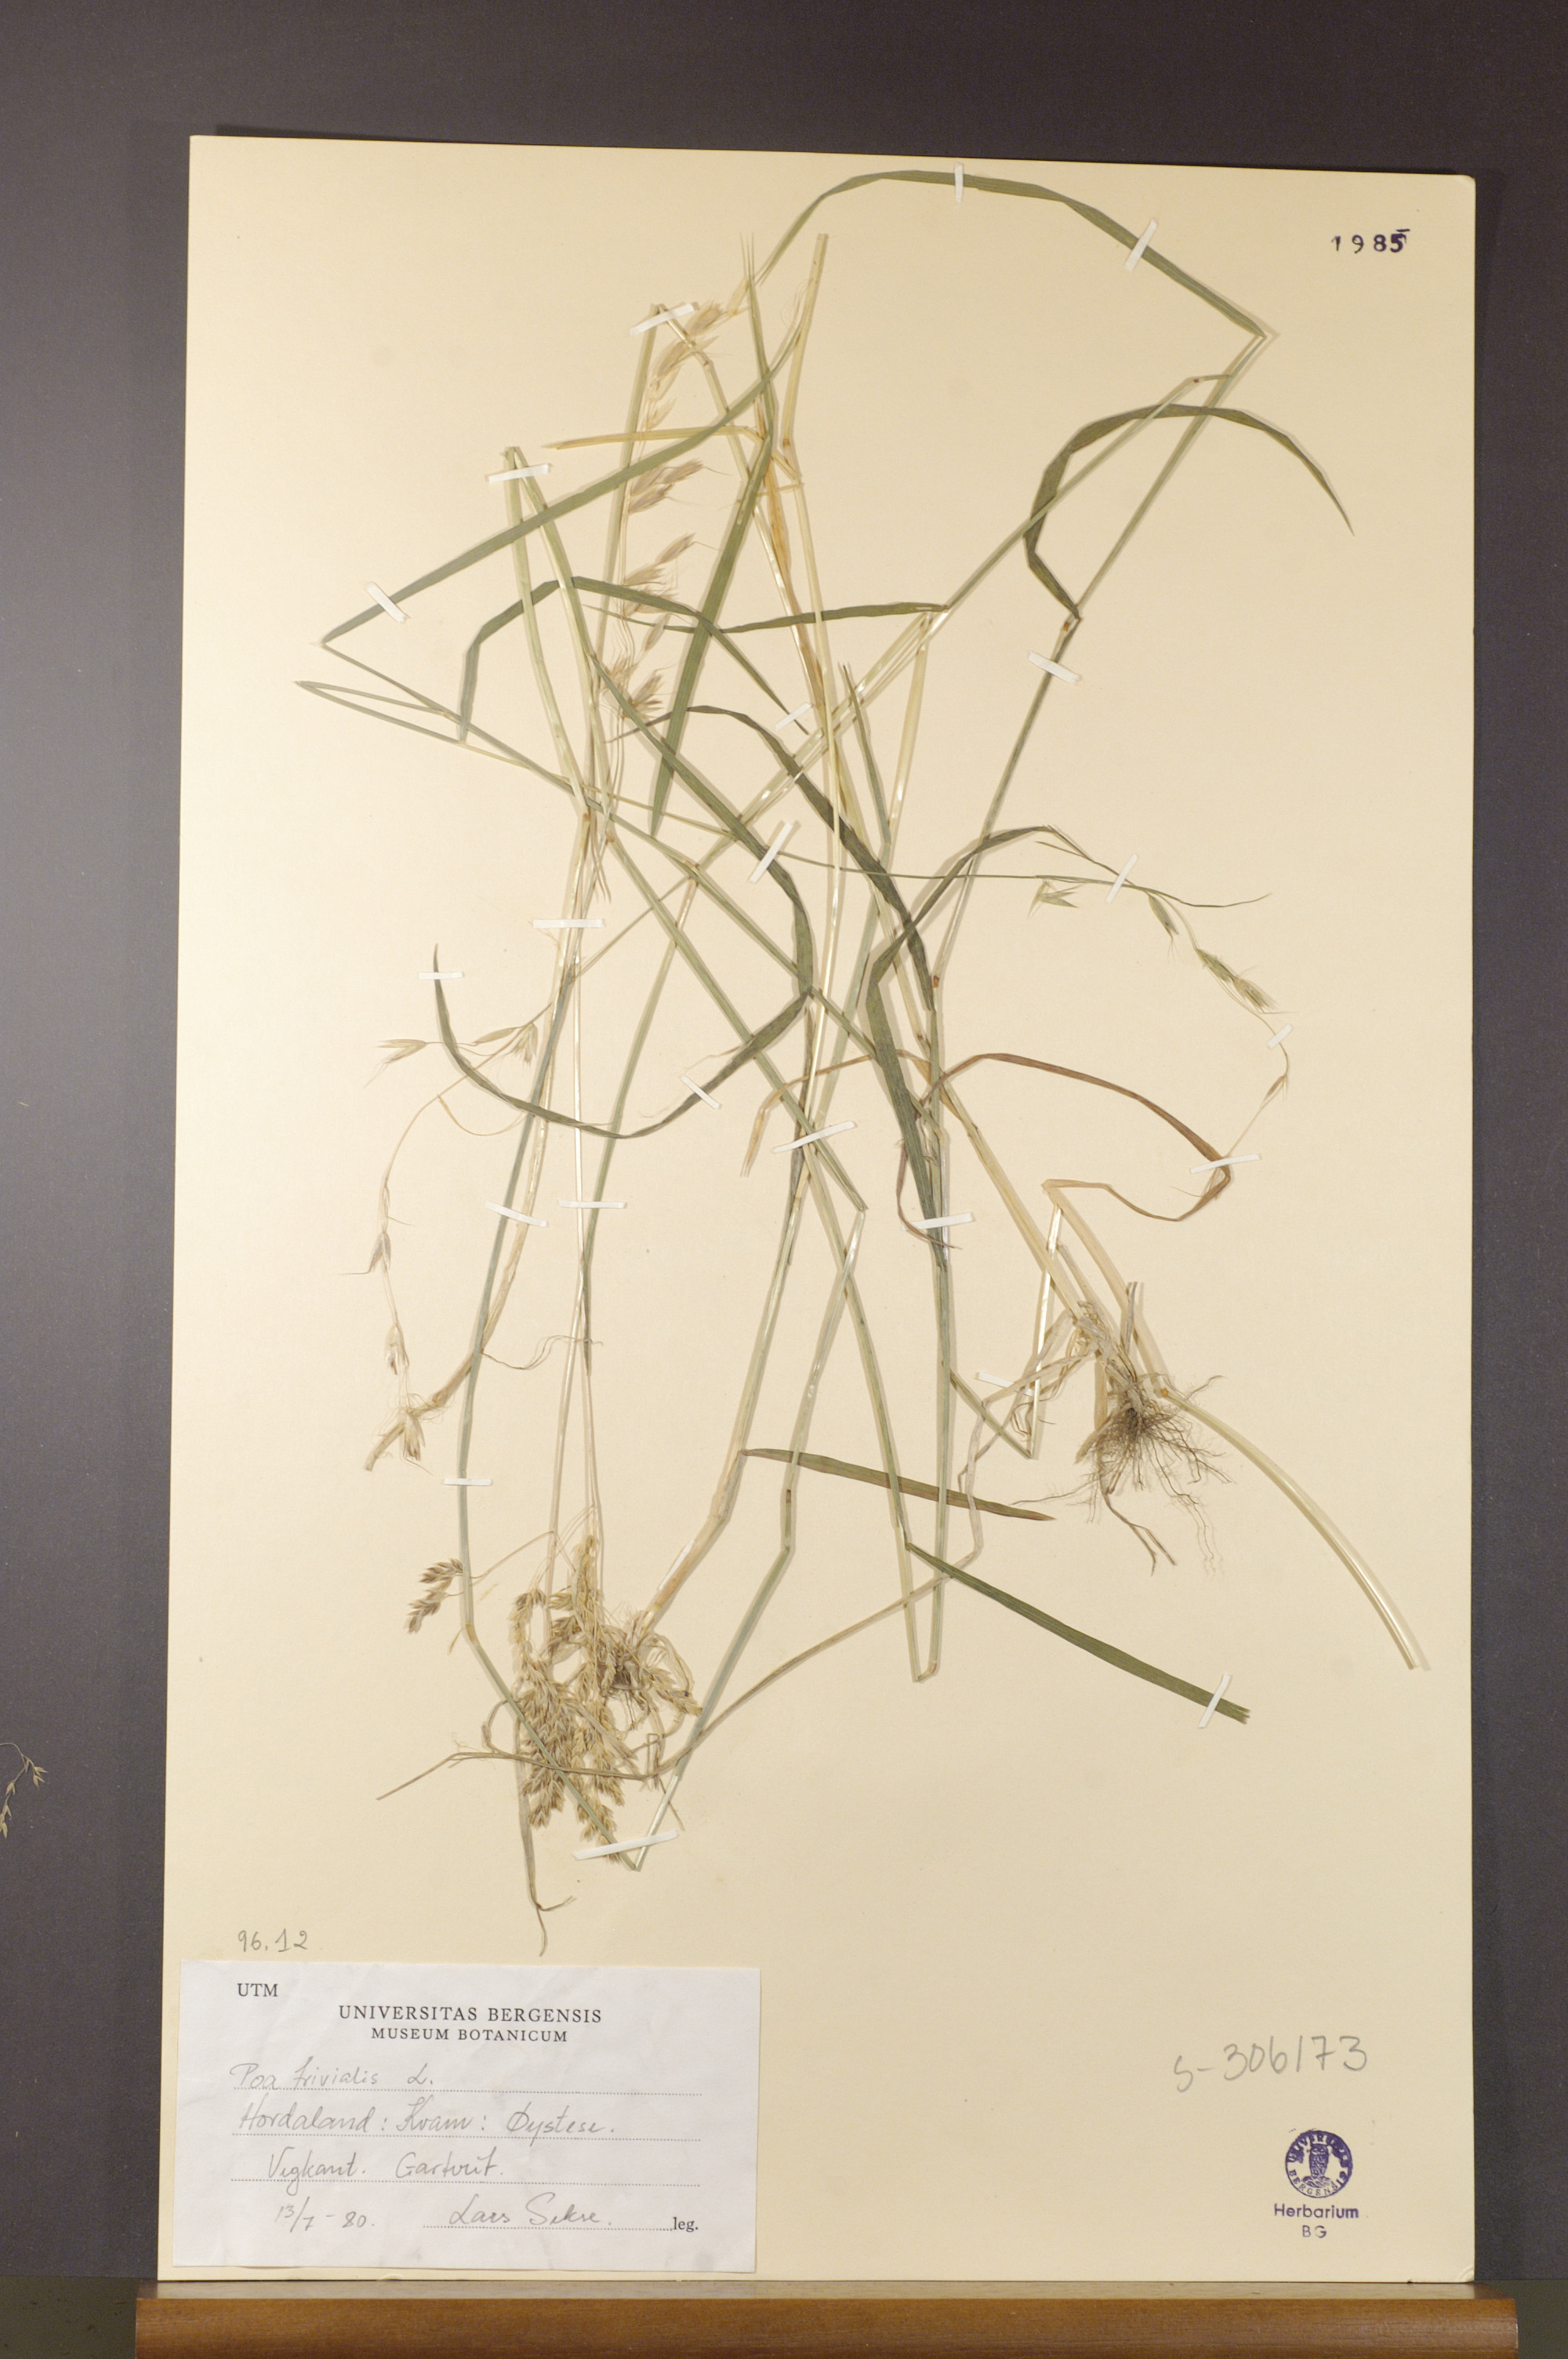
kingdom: Plantae
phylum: Tracheophyta
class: Liliopsida
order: Poales
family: Poaceae
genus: Poa
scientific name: Poa trivialis
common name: Rough bluegrass
